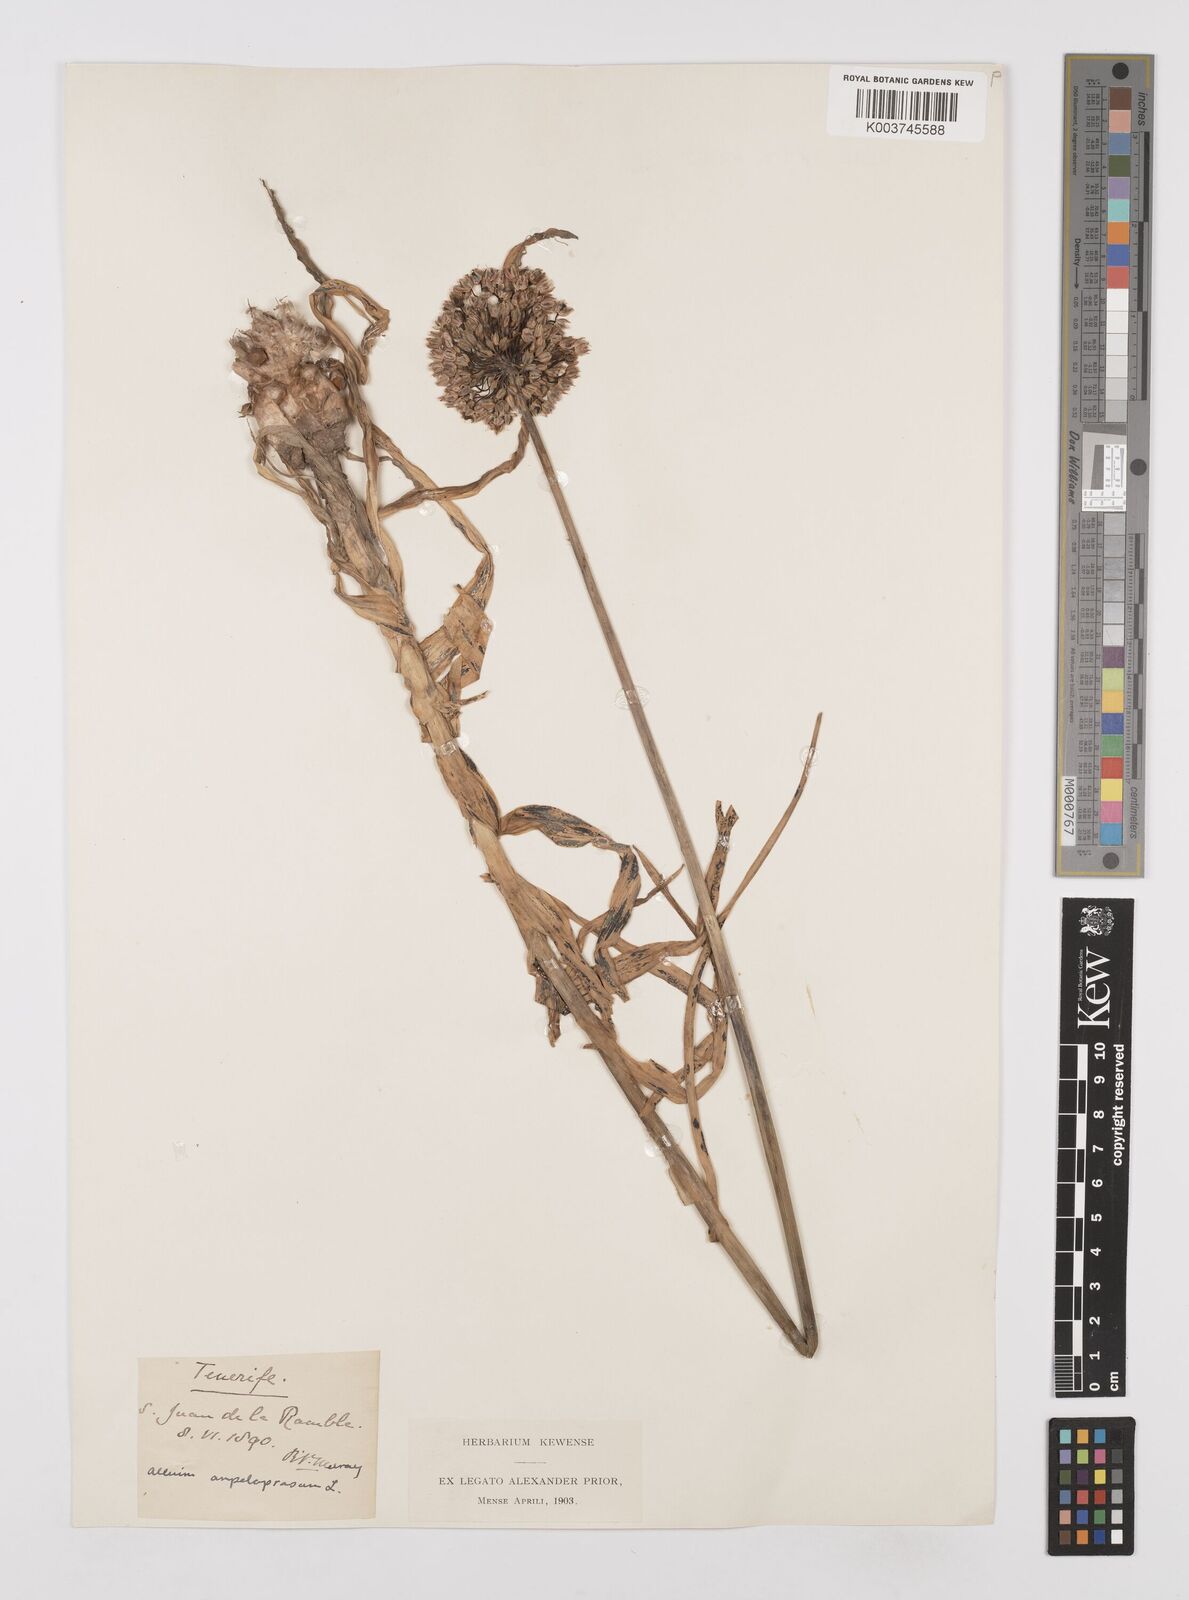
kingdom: Plantae
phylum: Tracheophyta
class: Liliopsida
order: Asparagales
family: Amaryllidaceae
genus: Allium
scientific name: Allium rotundum
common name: Sand leek
